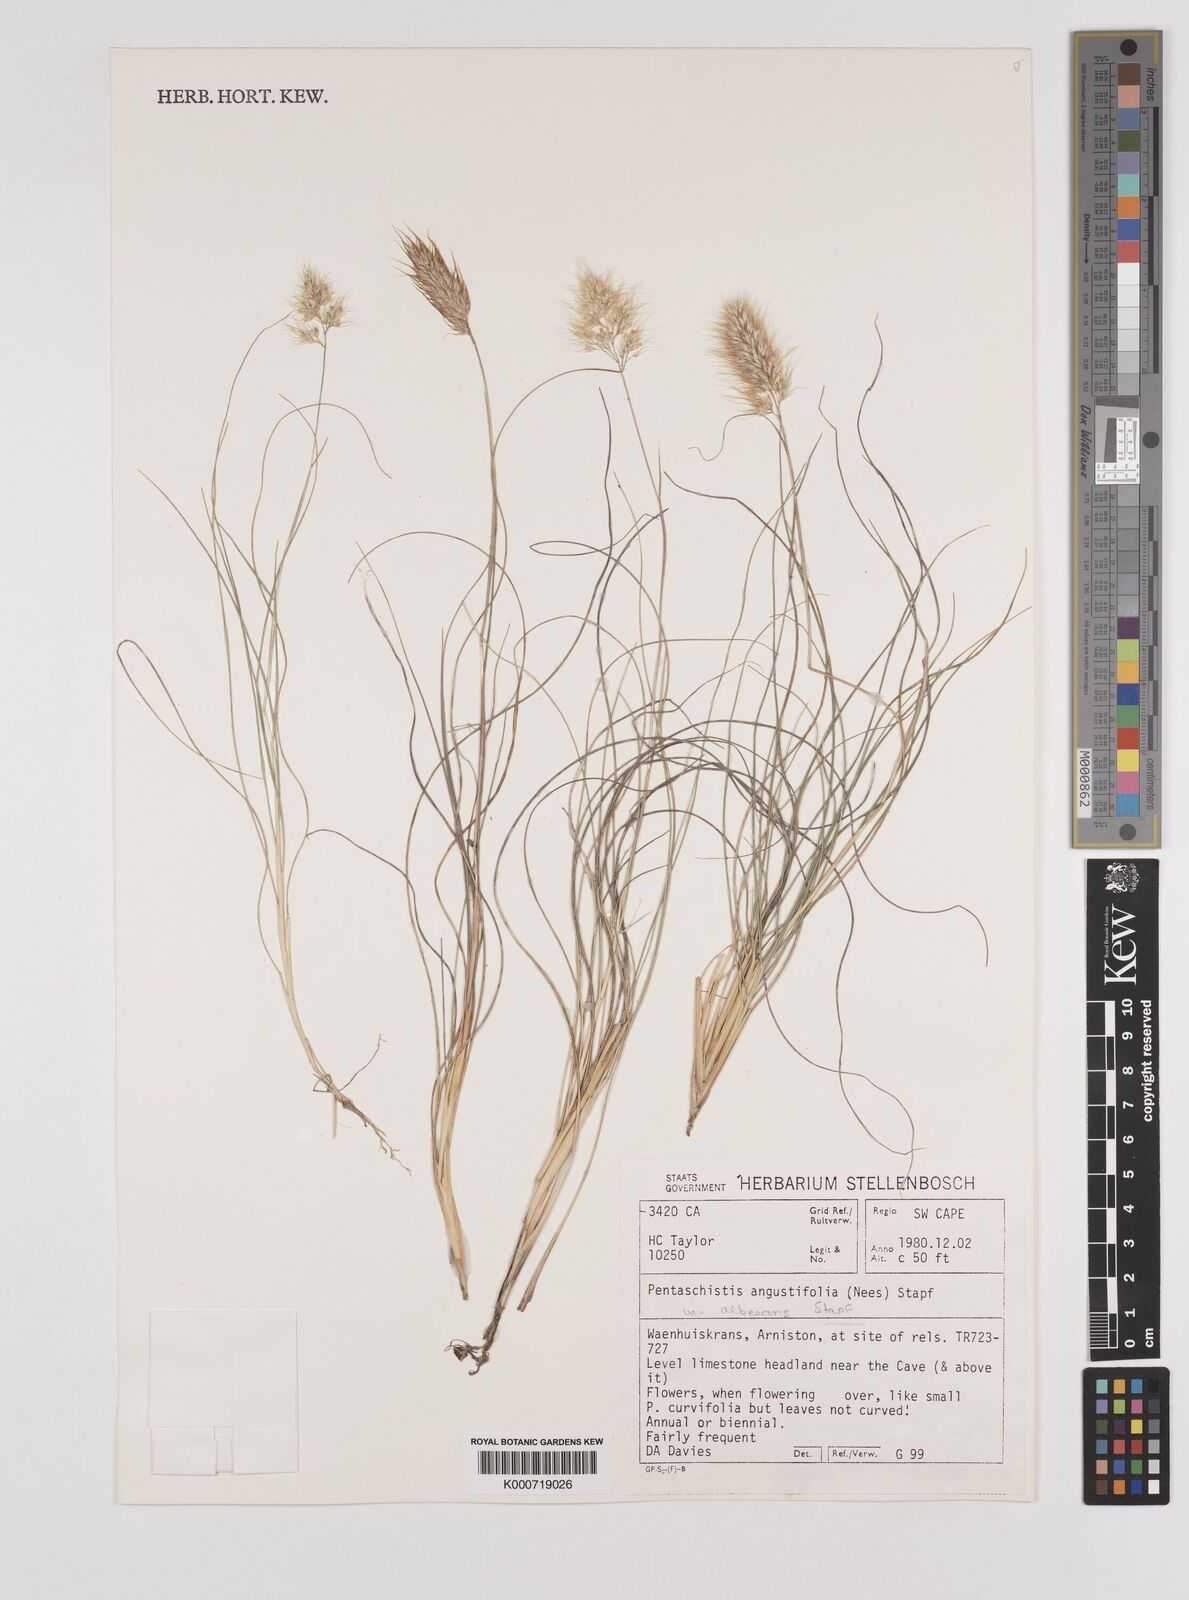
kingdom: Plantae
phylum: Tracheophyta
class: Liliopsida
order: Poales
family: Poaceae
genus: Pentameris
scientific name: Pentameris pallida
